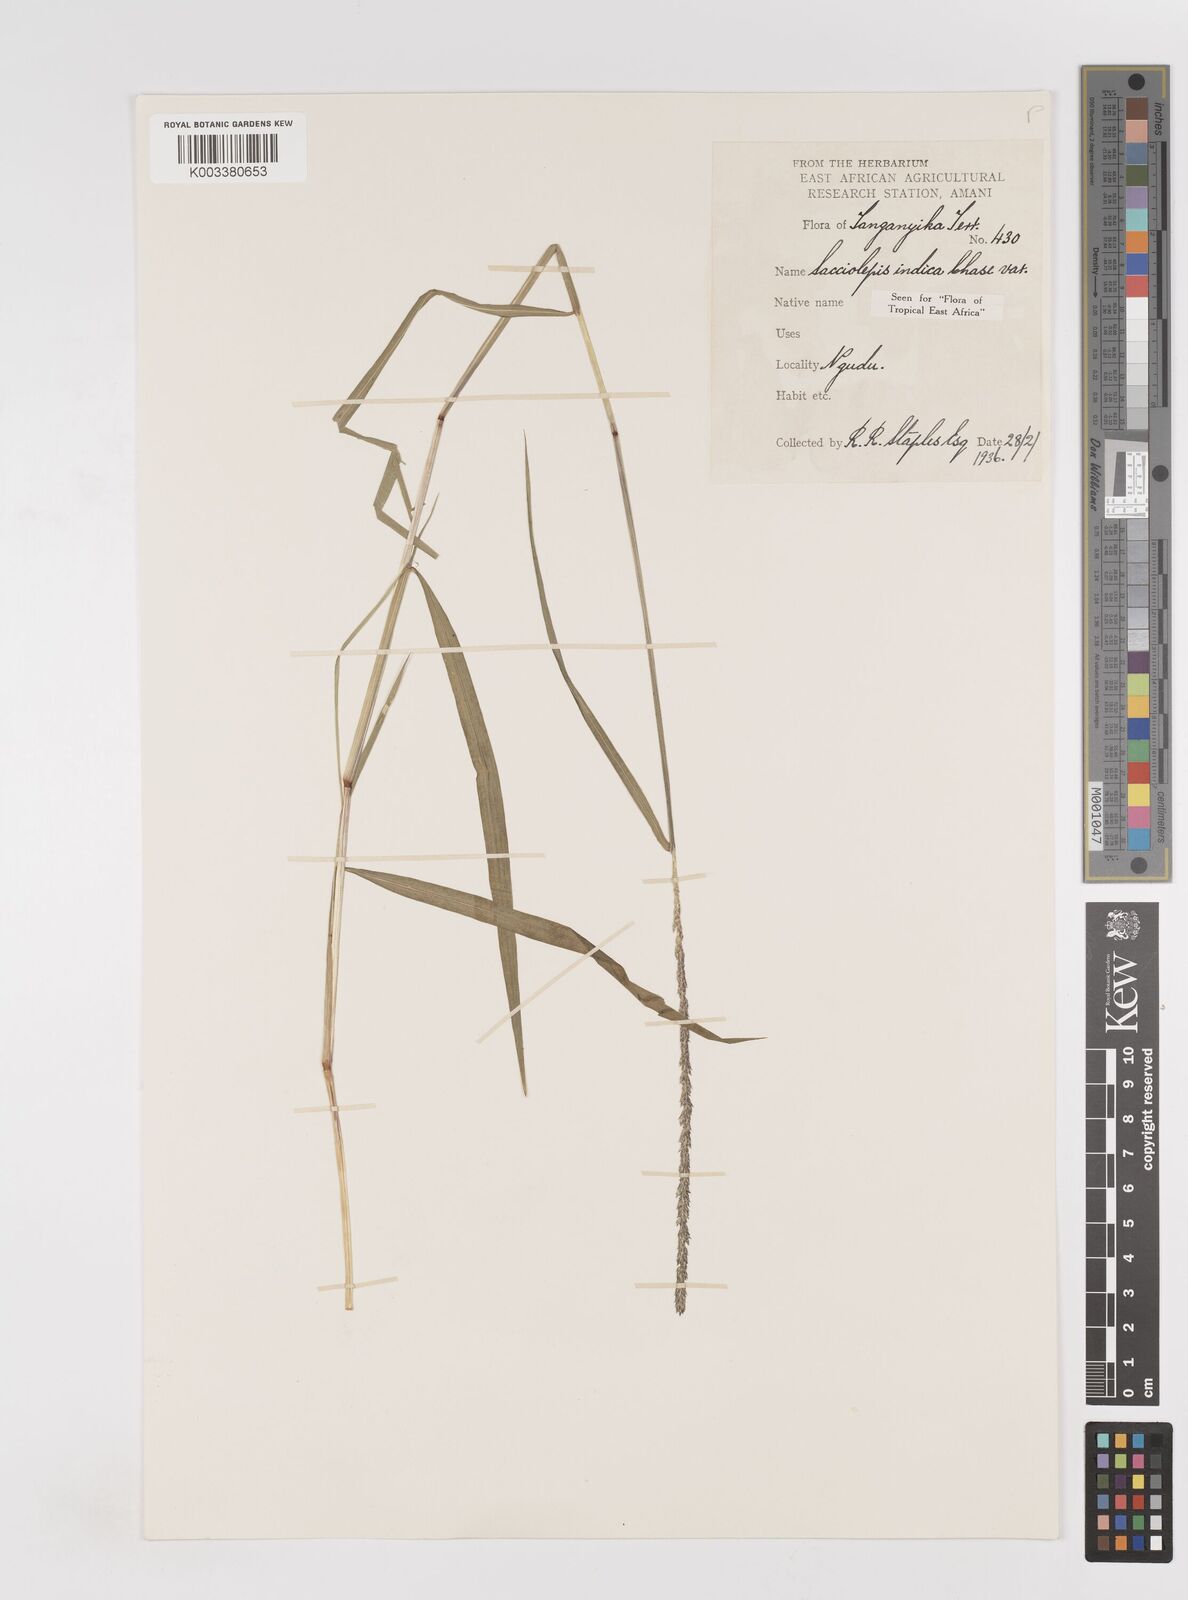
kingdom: Plantae
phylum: Tracheophyta
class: Liliopsida
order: Poales
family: Poaceae
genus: Sacciolepis
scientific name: Sacciolepis indica
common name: Glenwoodgrass
